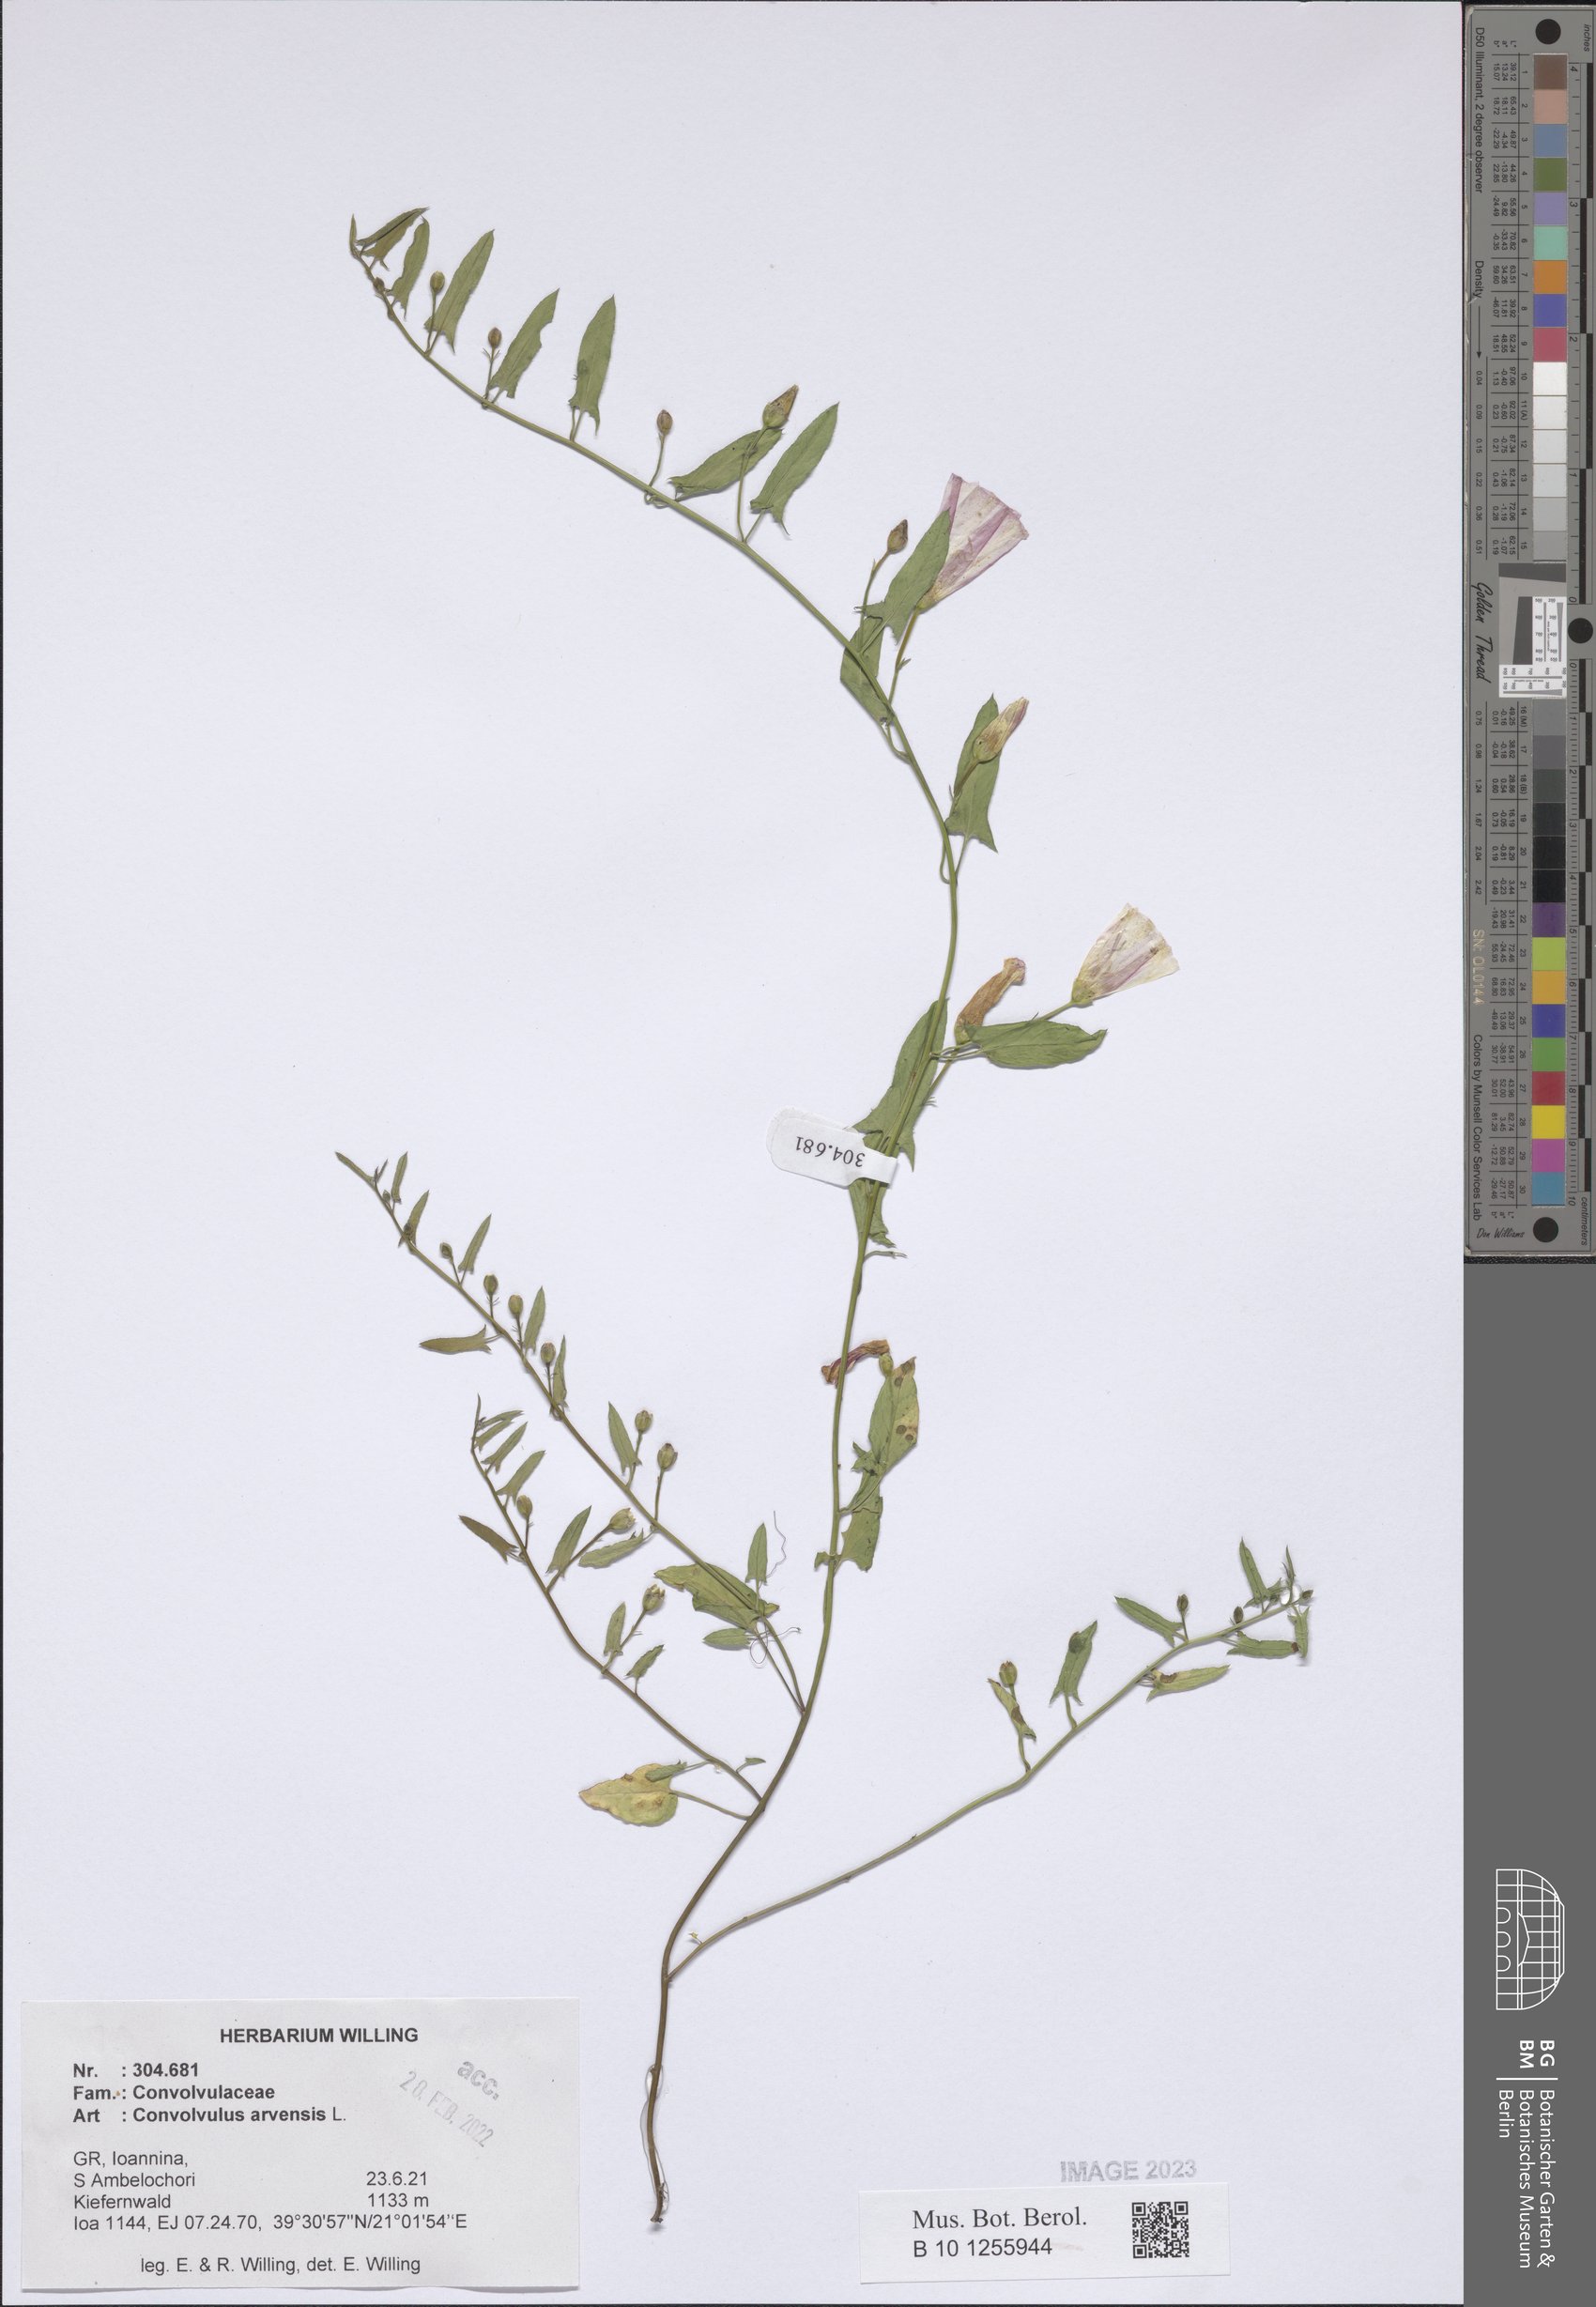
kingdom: Plantae
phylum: Tracheophyta
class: Magnoliopsida
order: Solanales
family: Convolvulaceae
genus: Convolvulus
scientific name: Convolvulus arvensis
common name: Field bindweed
